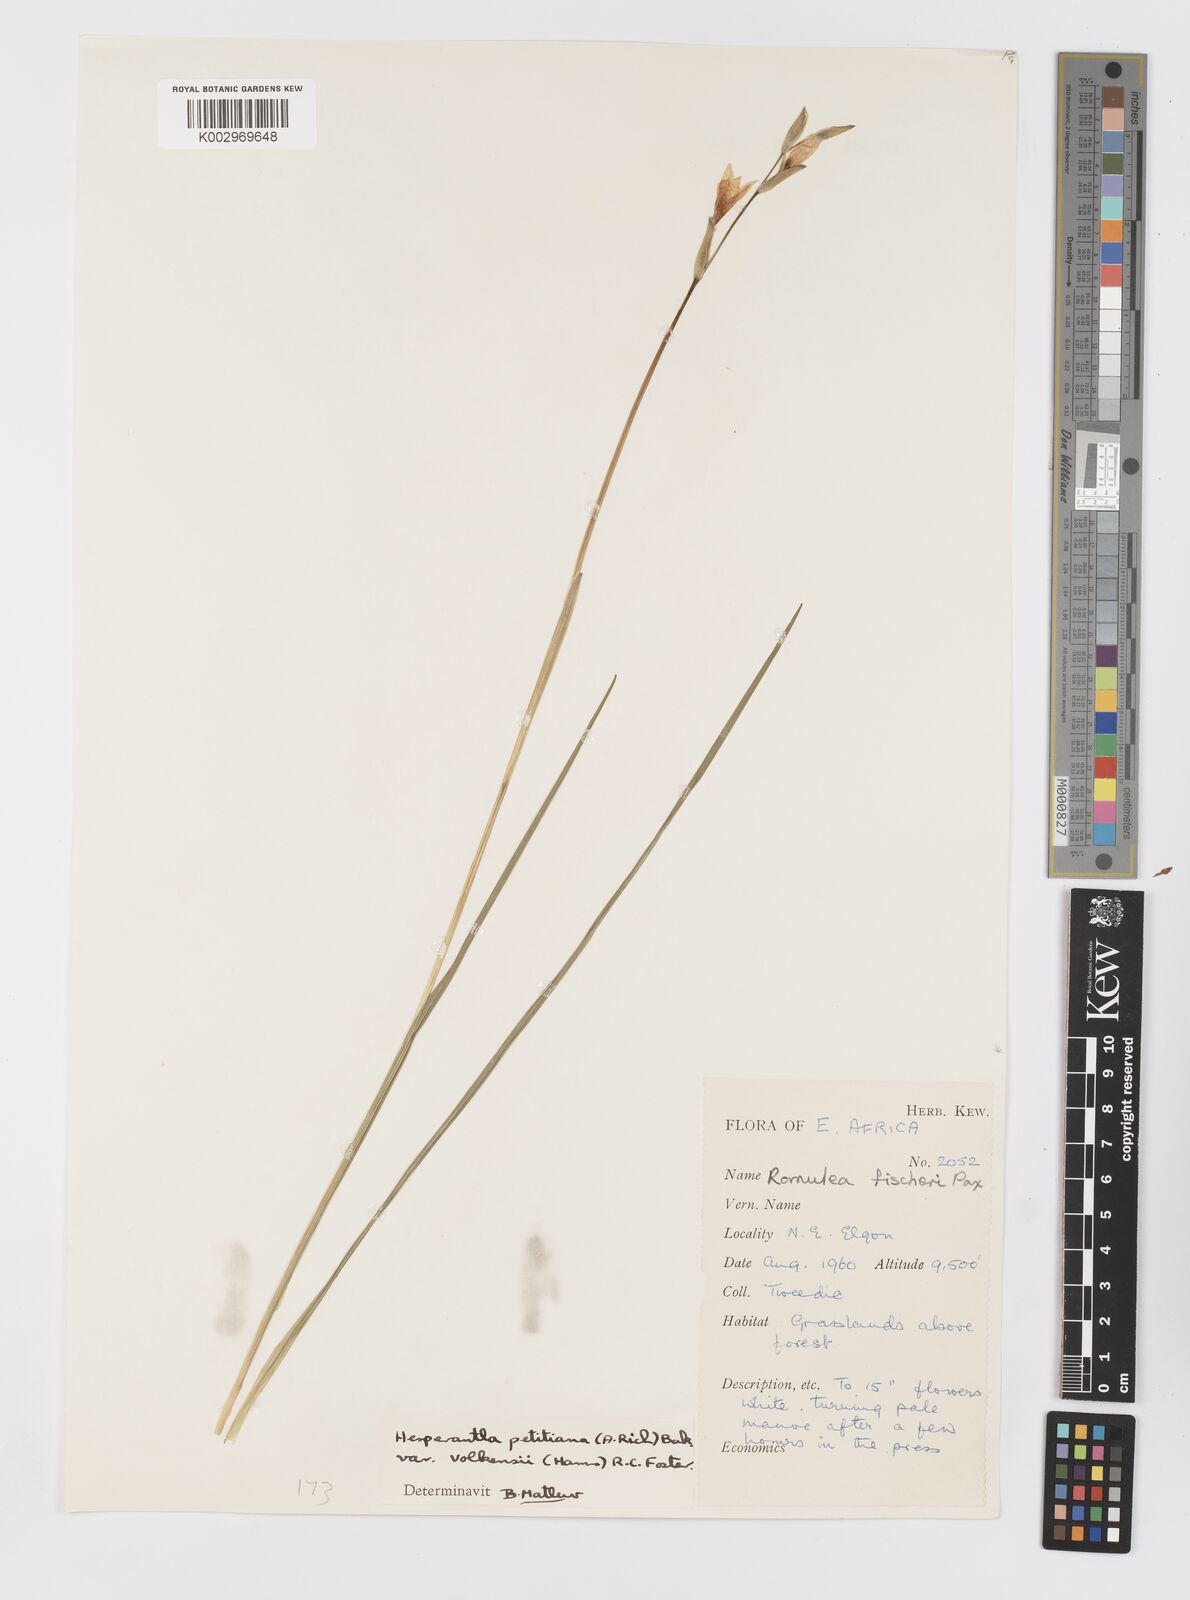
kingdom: Plantae
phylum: Tracheophyta
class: Liliopsida
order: Asparagales
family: Iridaceae
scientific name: Iridaceae
